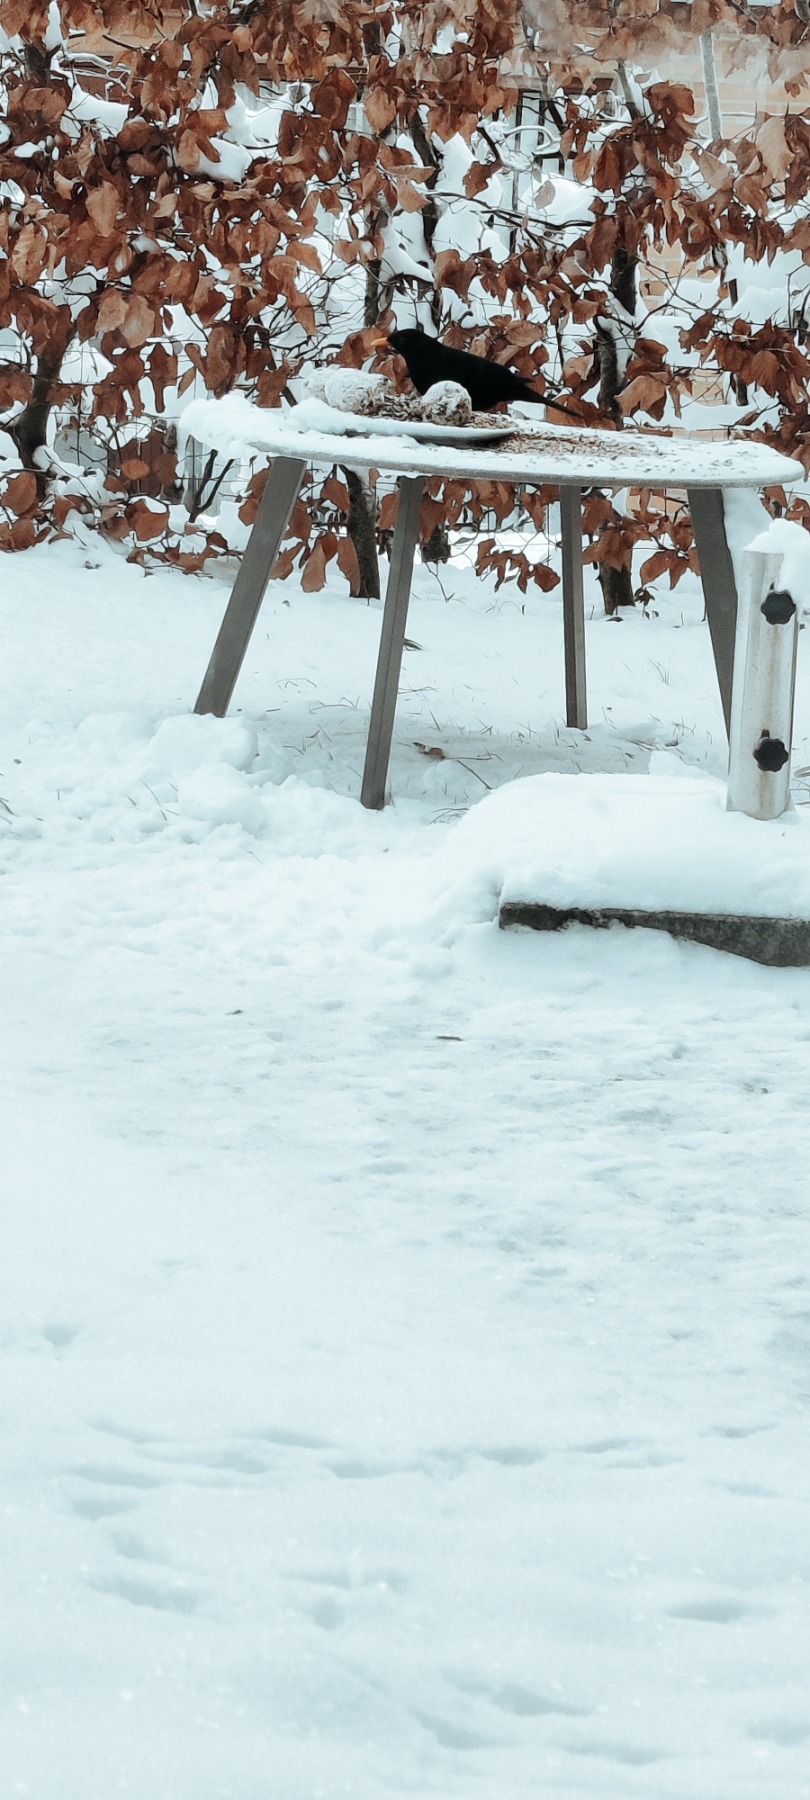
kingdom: Animalia
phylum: Chordata
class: Aves
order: Passeriformes
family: Turdidae
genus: Turdus
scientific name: Turdus merula
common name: Solsort
